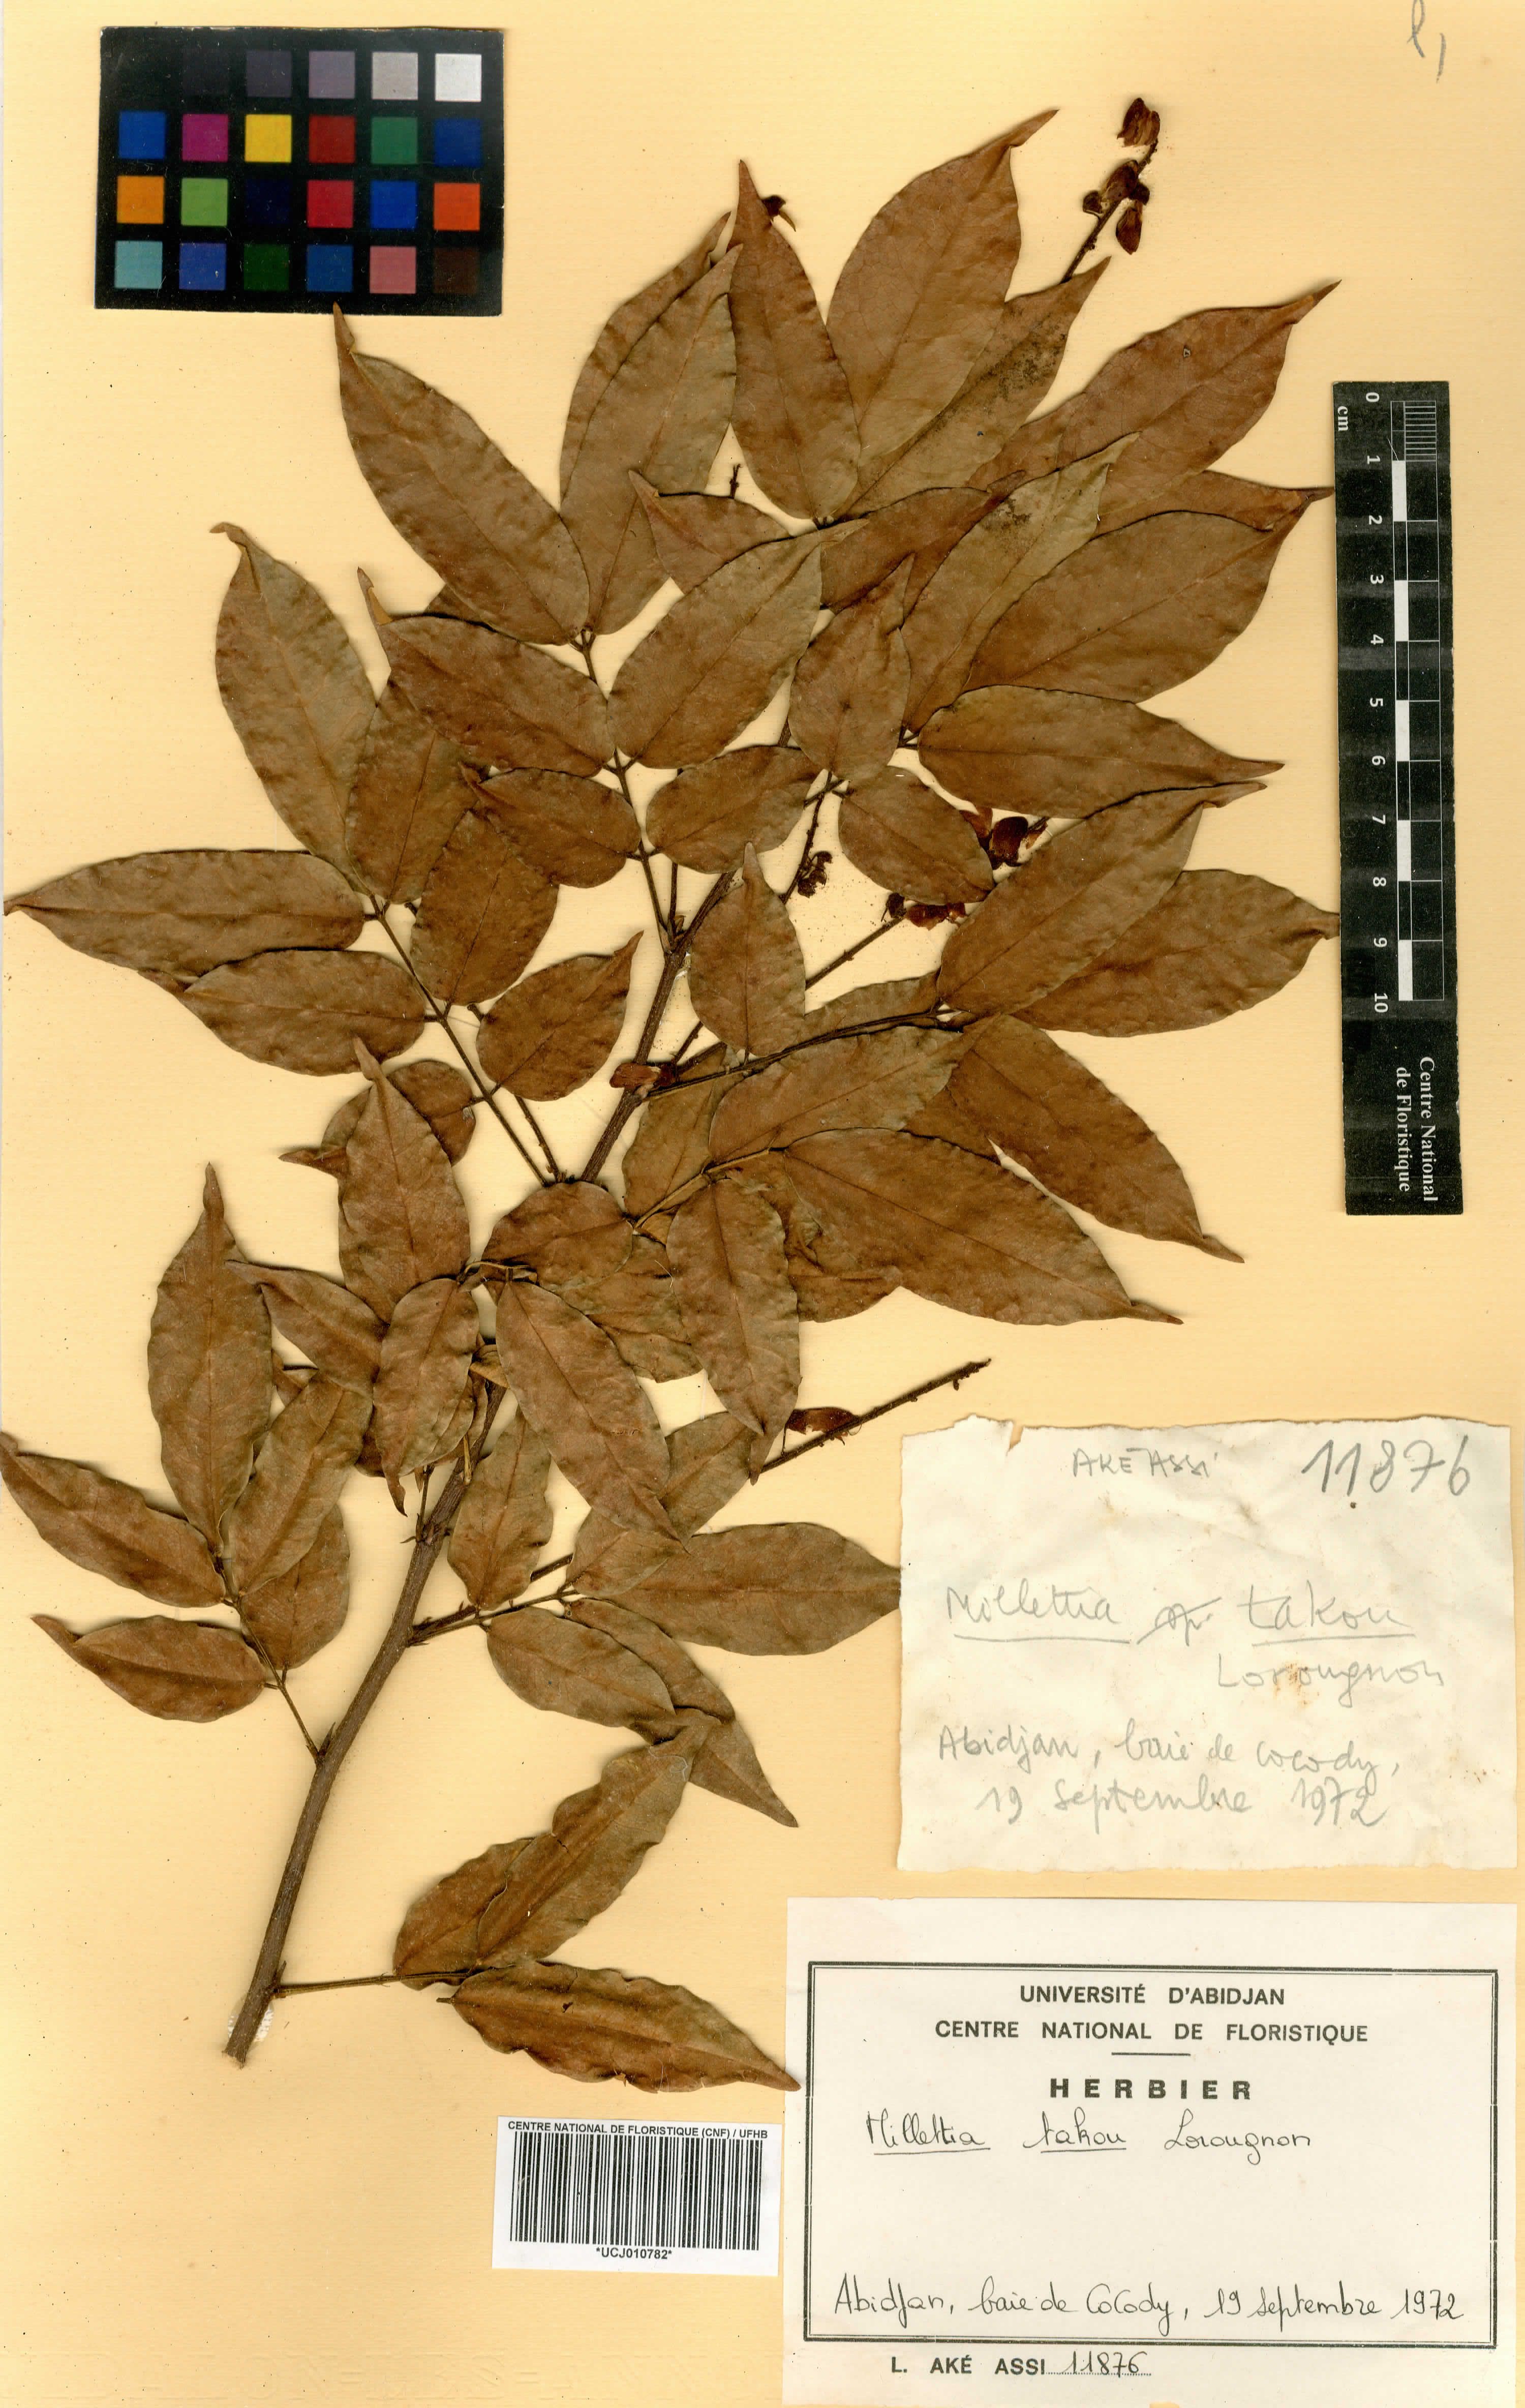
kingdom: Plantae
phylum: Tracheophyta
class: Magnoliopsida
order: Fabales
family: Fabaceae
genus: Millettia
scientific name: Millettia takou
